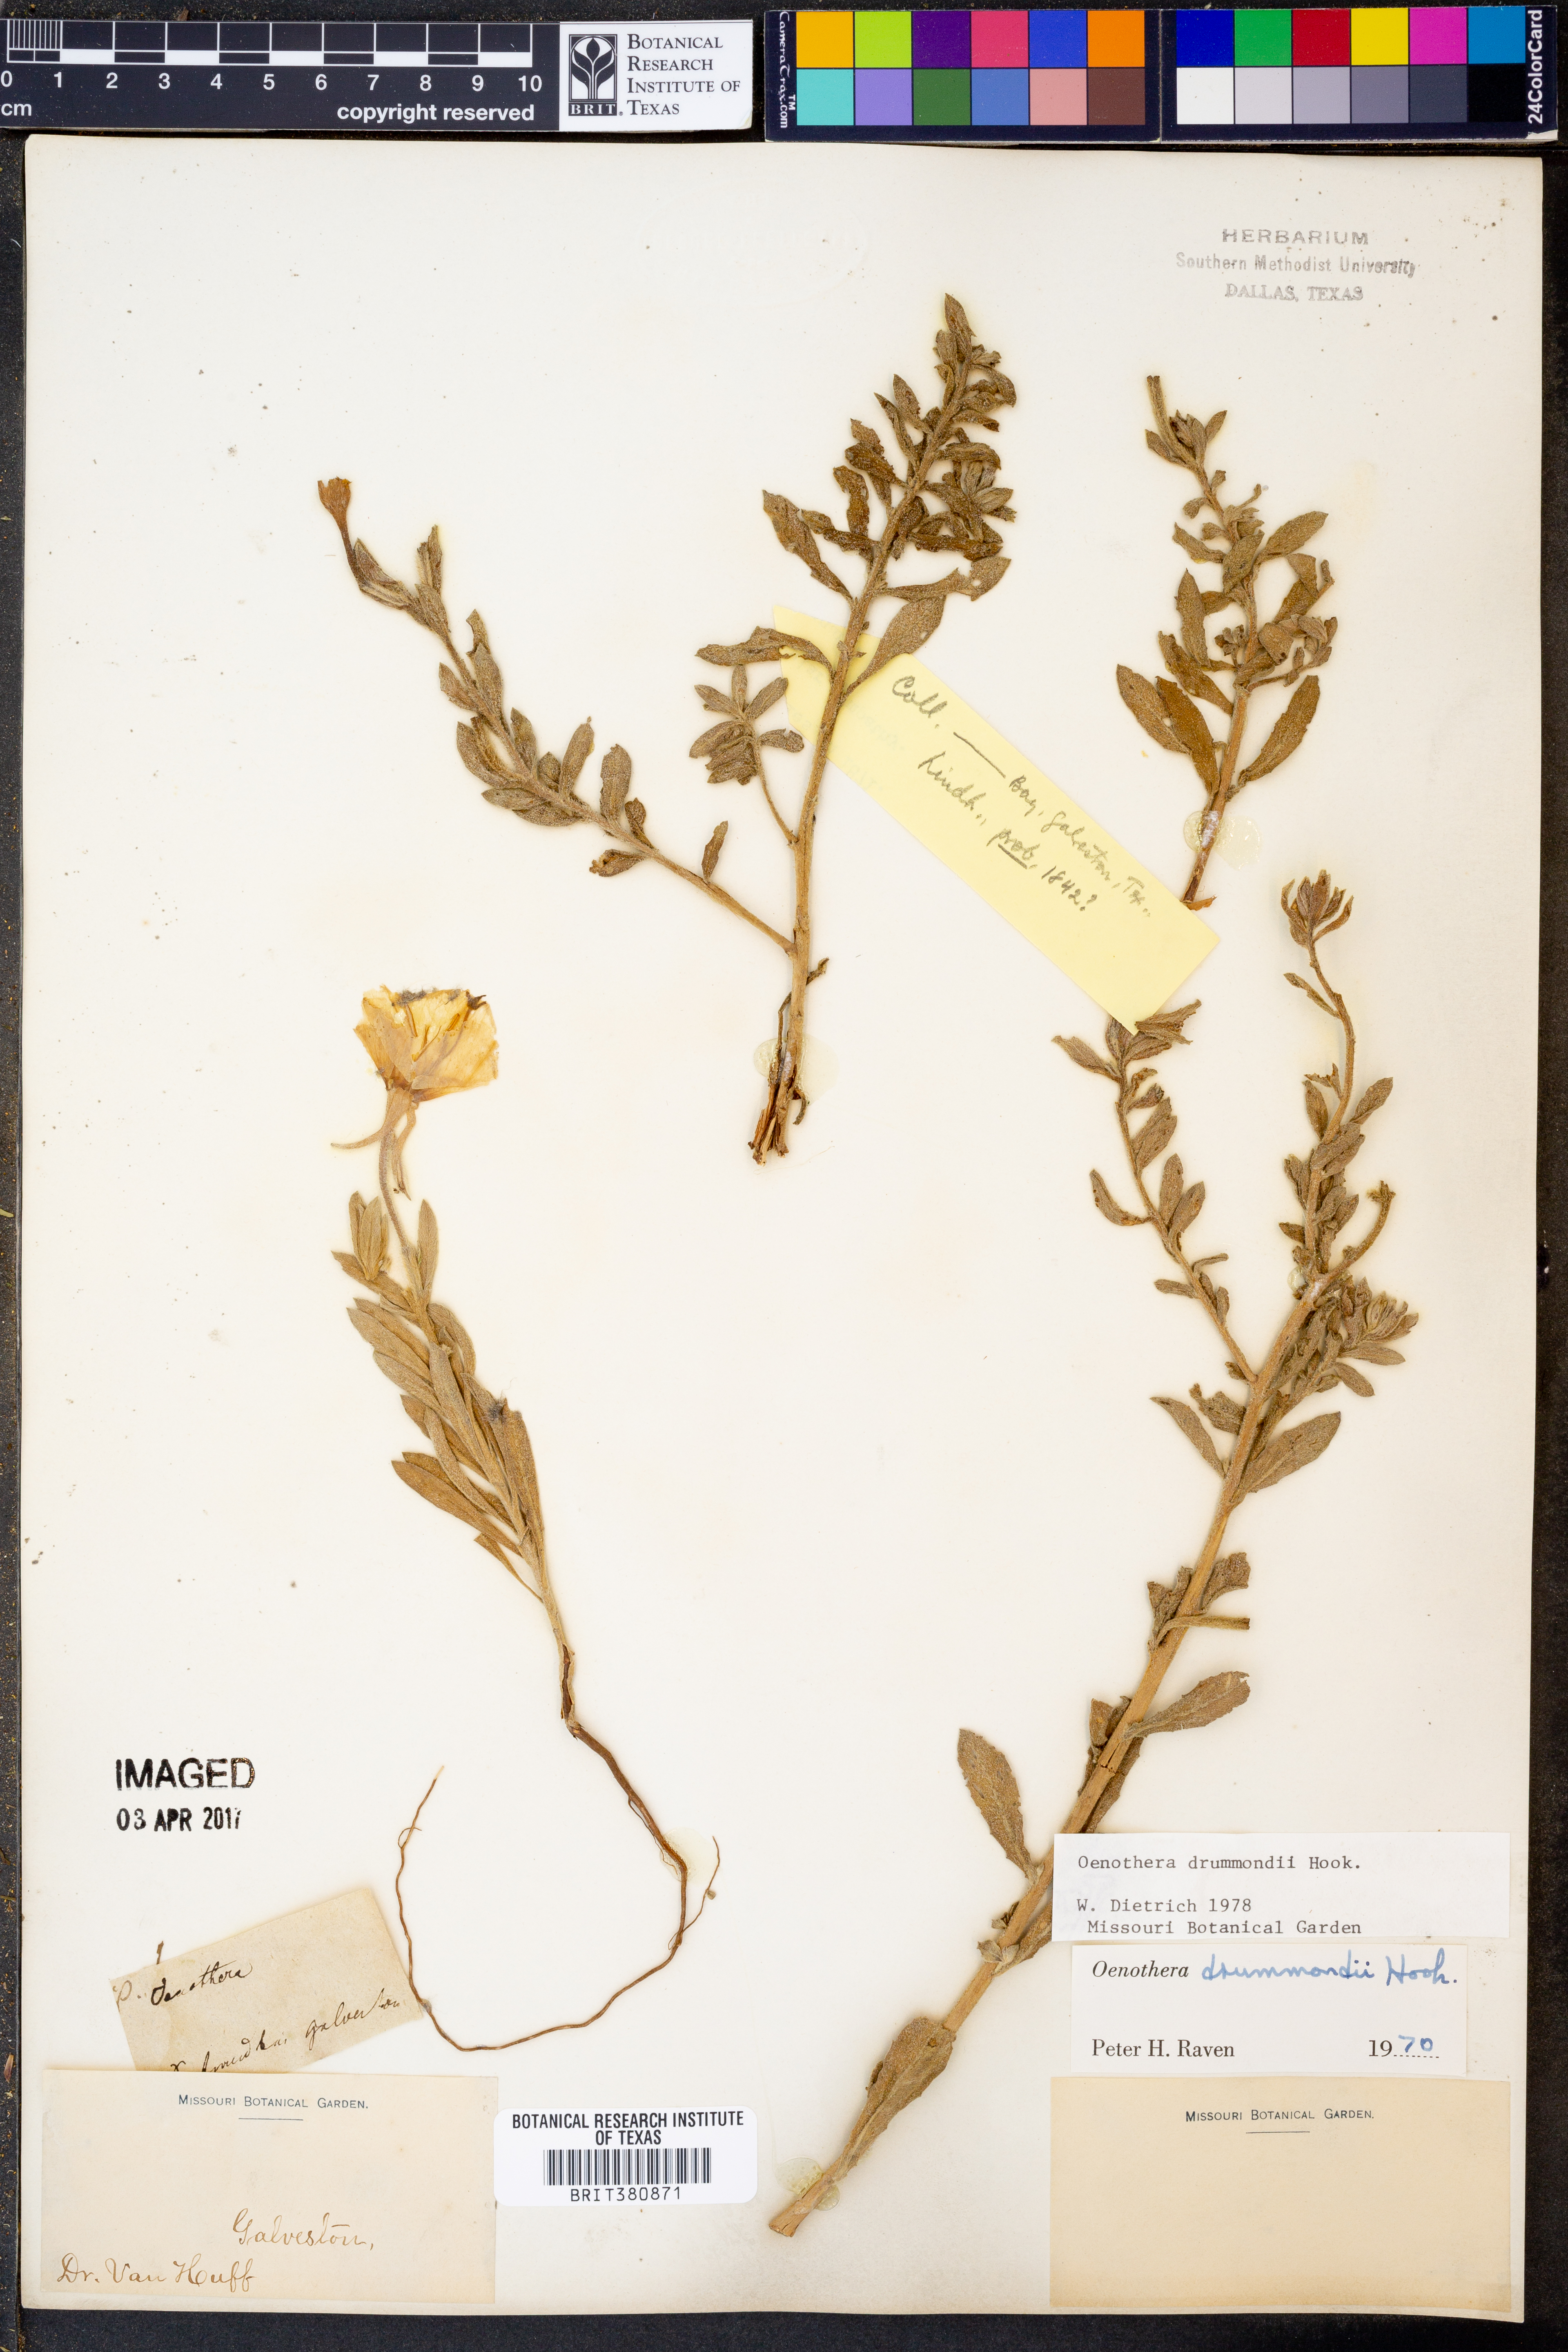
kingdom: Plantae
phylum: Tracheophyta
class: Magnoliopsida
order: Myrtales
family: Onagraceae
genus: Oenothera
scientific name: Oenothera drummondii
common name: Beach evening-primrose
